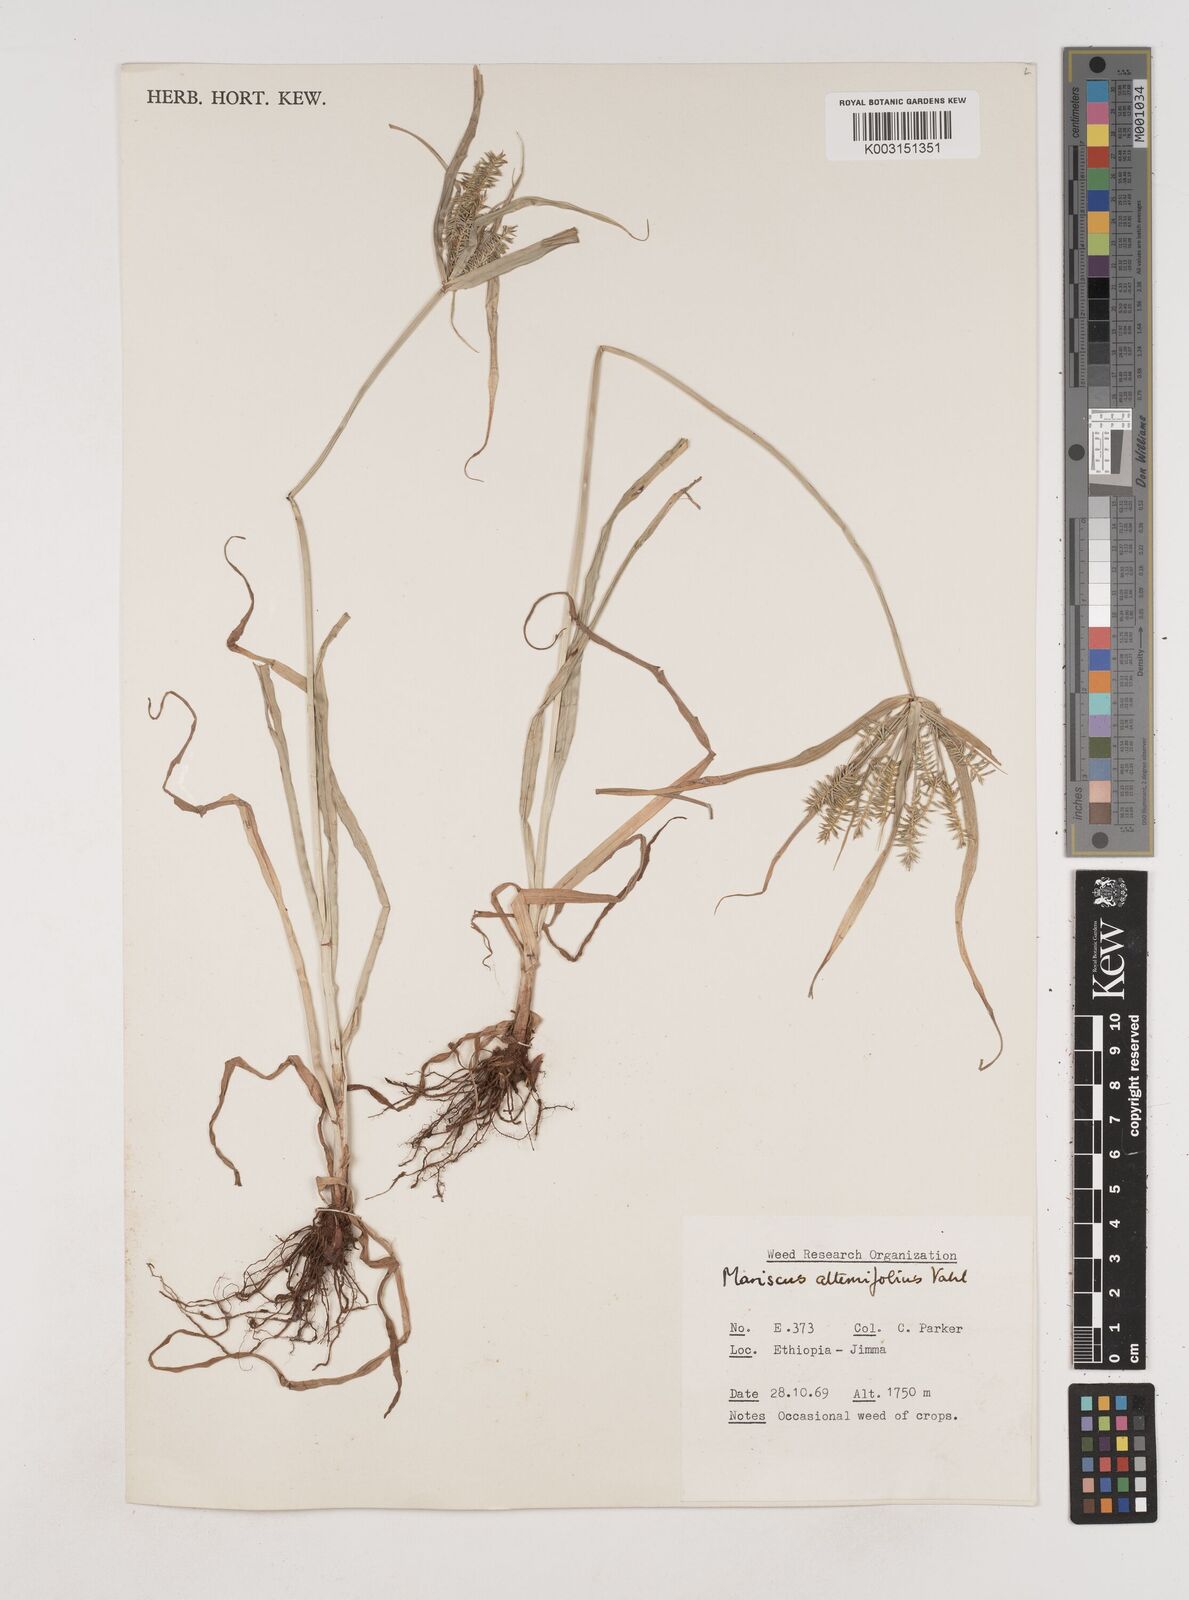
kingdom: Plantae
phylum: Tracheophyta
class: Liliopsida
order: Poales
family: Cyperaceae
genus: Cyperus
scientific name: Cyperus cyperoides
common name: Pacific island flat sedge
